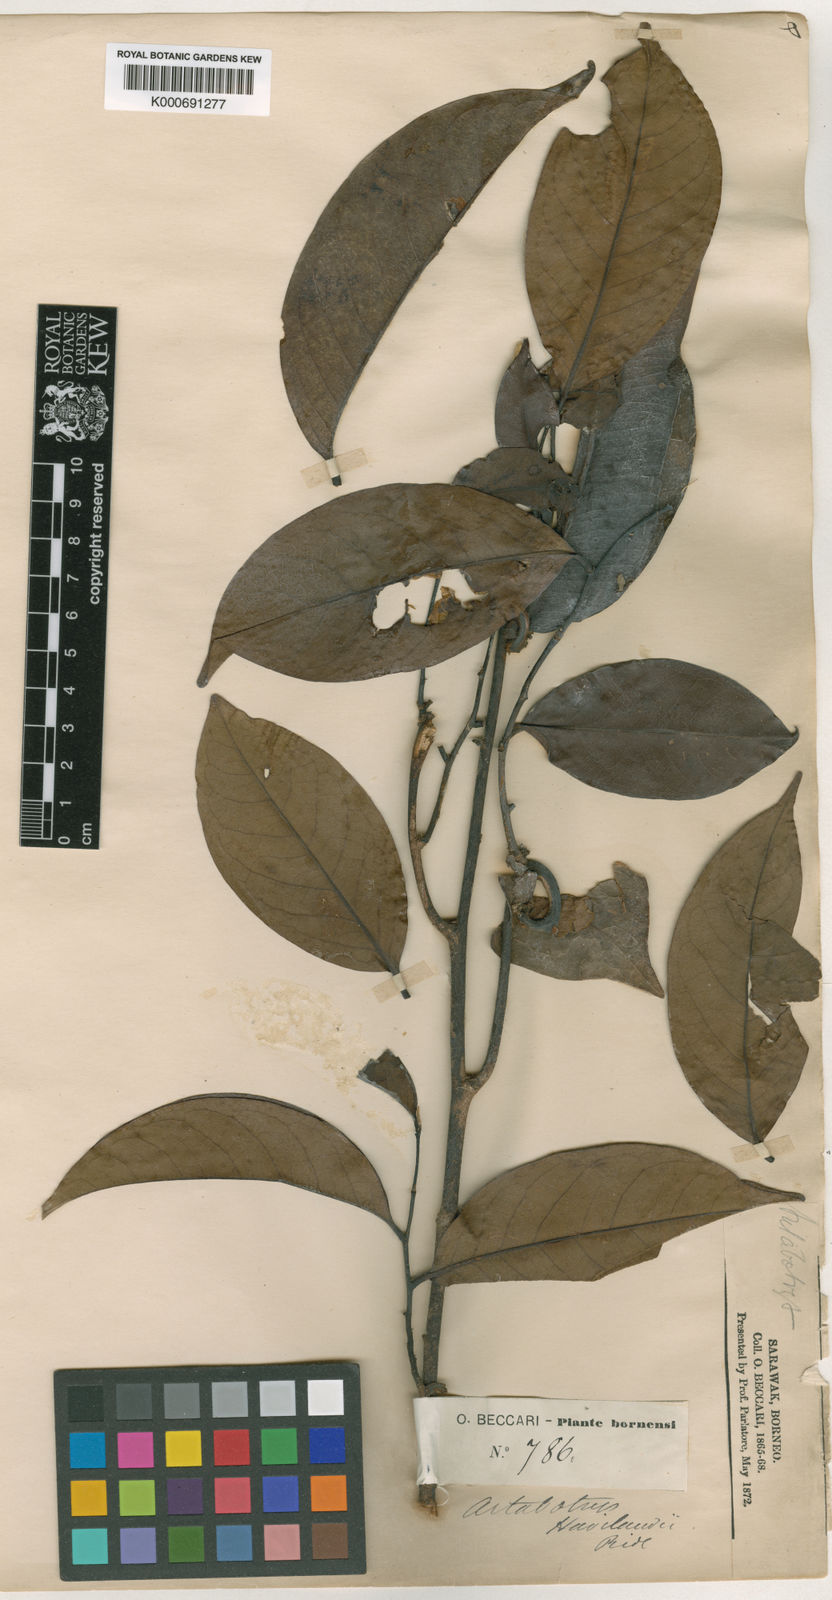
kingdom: Plantae
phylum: Tracheophyta
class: Magnoliopsida
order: Magnoliales
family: Annonaceae
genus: Artabotrys
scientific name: Artabotrys maingayi
